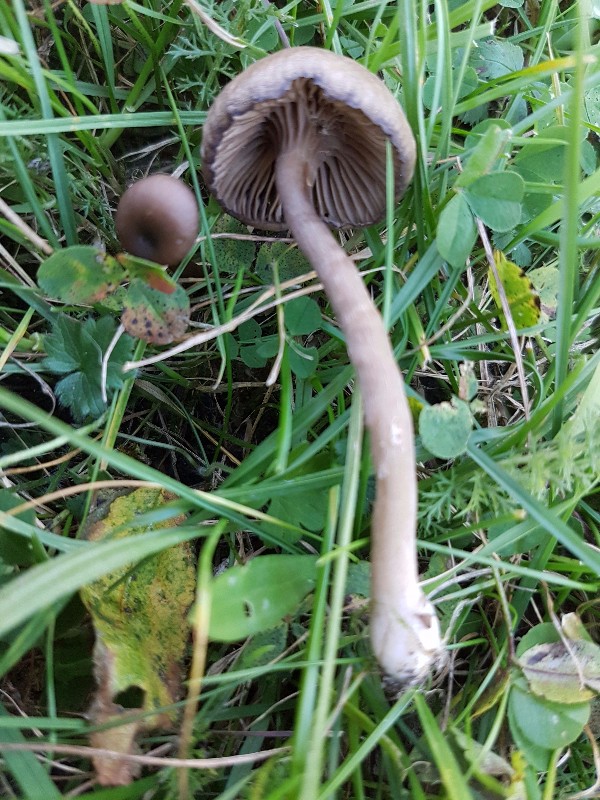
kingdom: Fungi
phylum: Basidiomycota
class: Agaricomycetes
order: Agaricales
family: Pseudoclitocybaceae
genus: Pseudoclitocybe
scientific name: Pseudoclitocybe expallens
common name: lille bægertragthat
